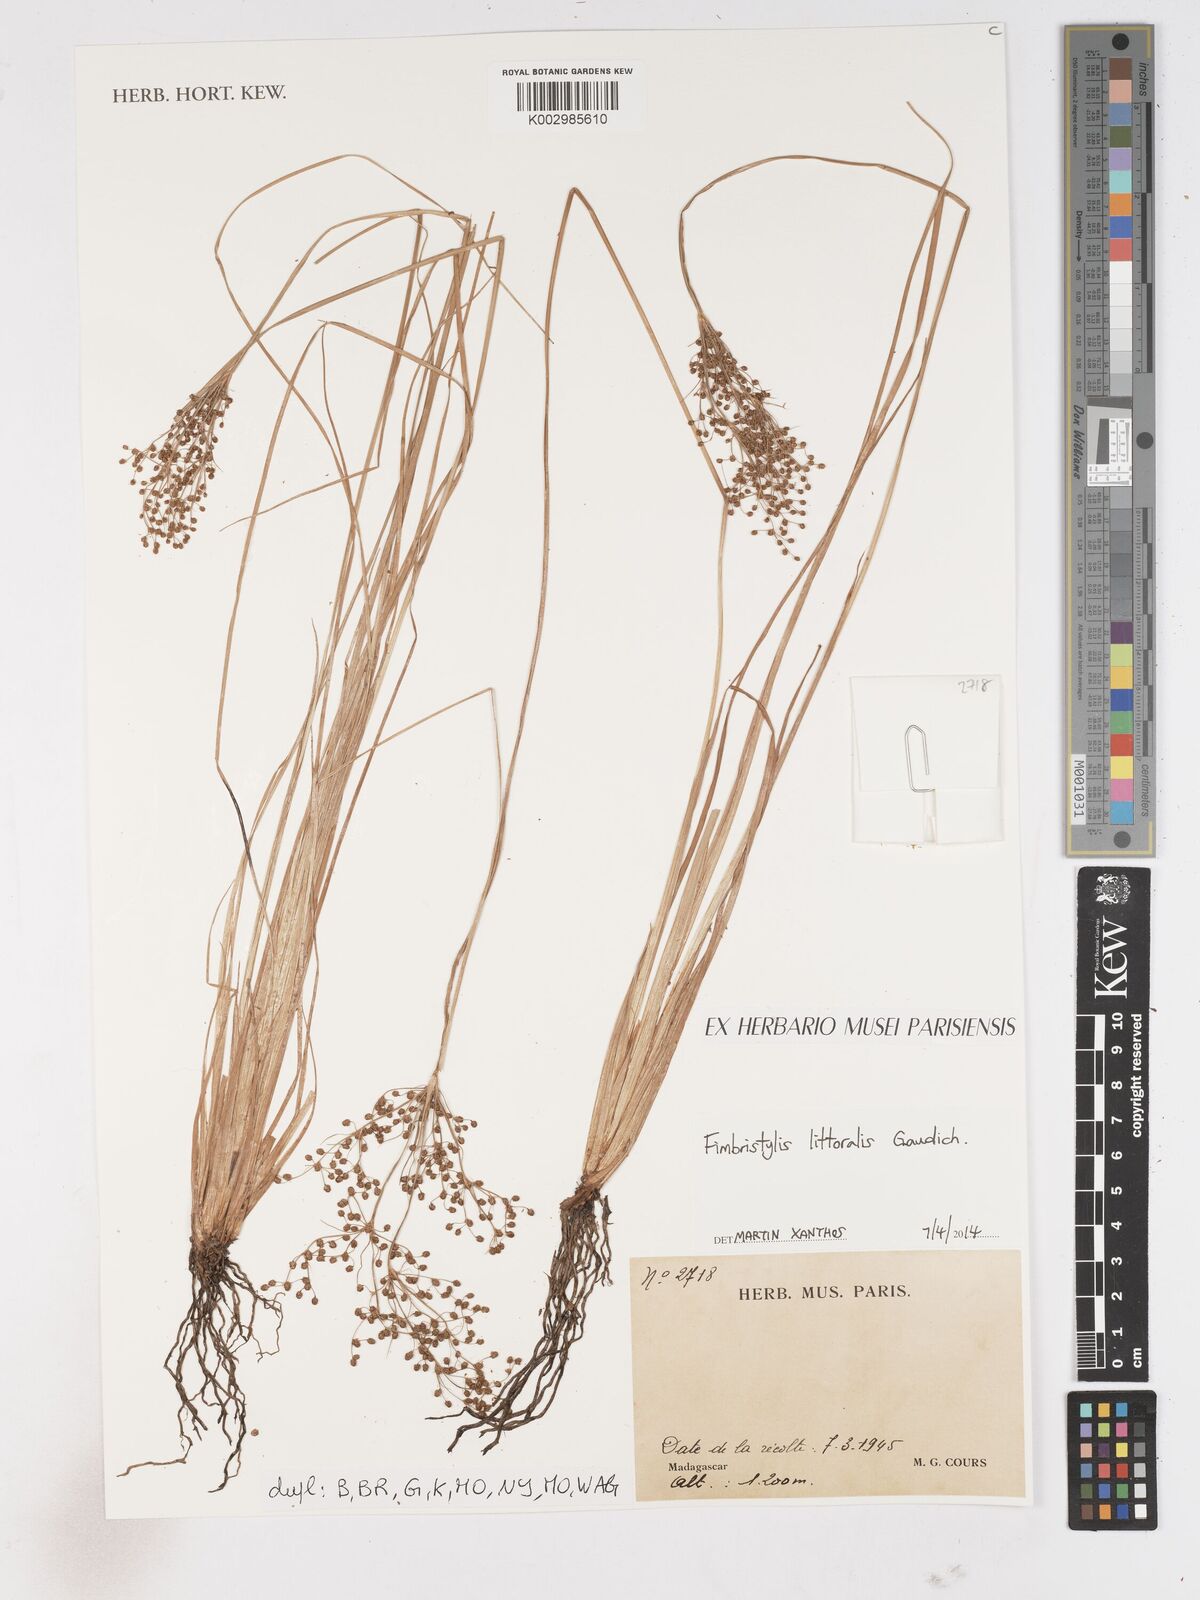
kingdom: Plantae
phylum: Tracheophyta
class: Liliopsida
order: Poales
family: Cyperaceae
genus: Fimbristylis
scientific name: Fimbristylis littoralis
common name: Fimbry
